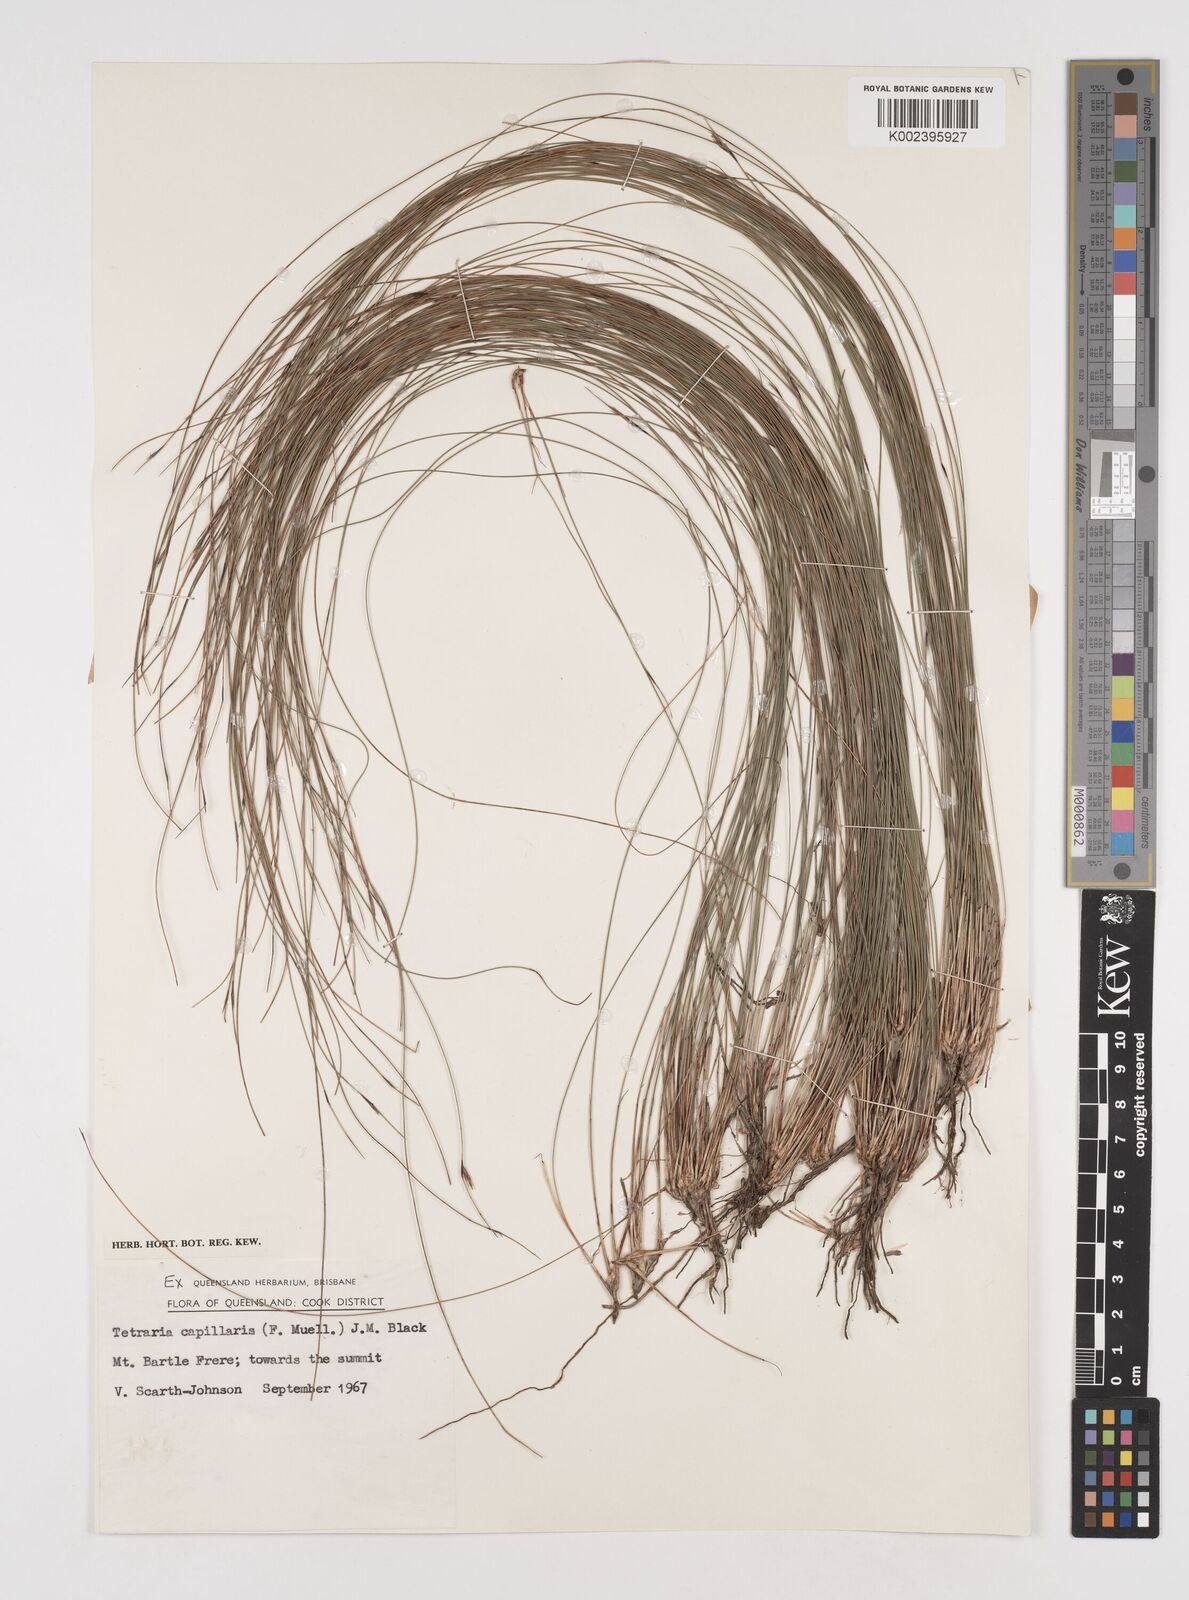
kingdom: Plantae
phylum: Tracheophyta
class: Liliopsida
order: Poales
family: Cyperaceae
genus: Tetraria
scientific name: Tetraria capillaris
